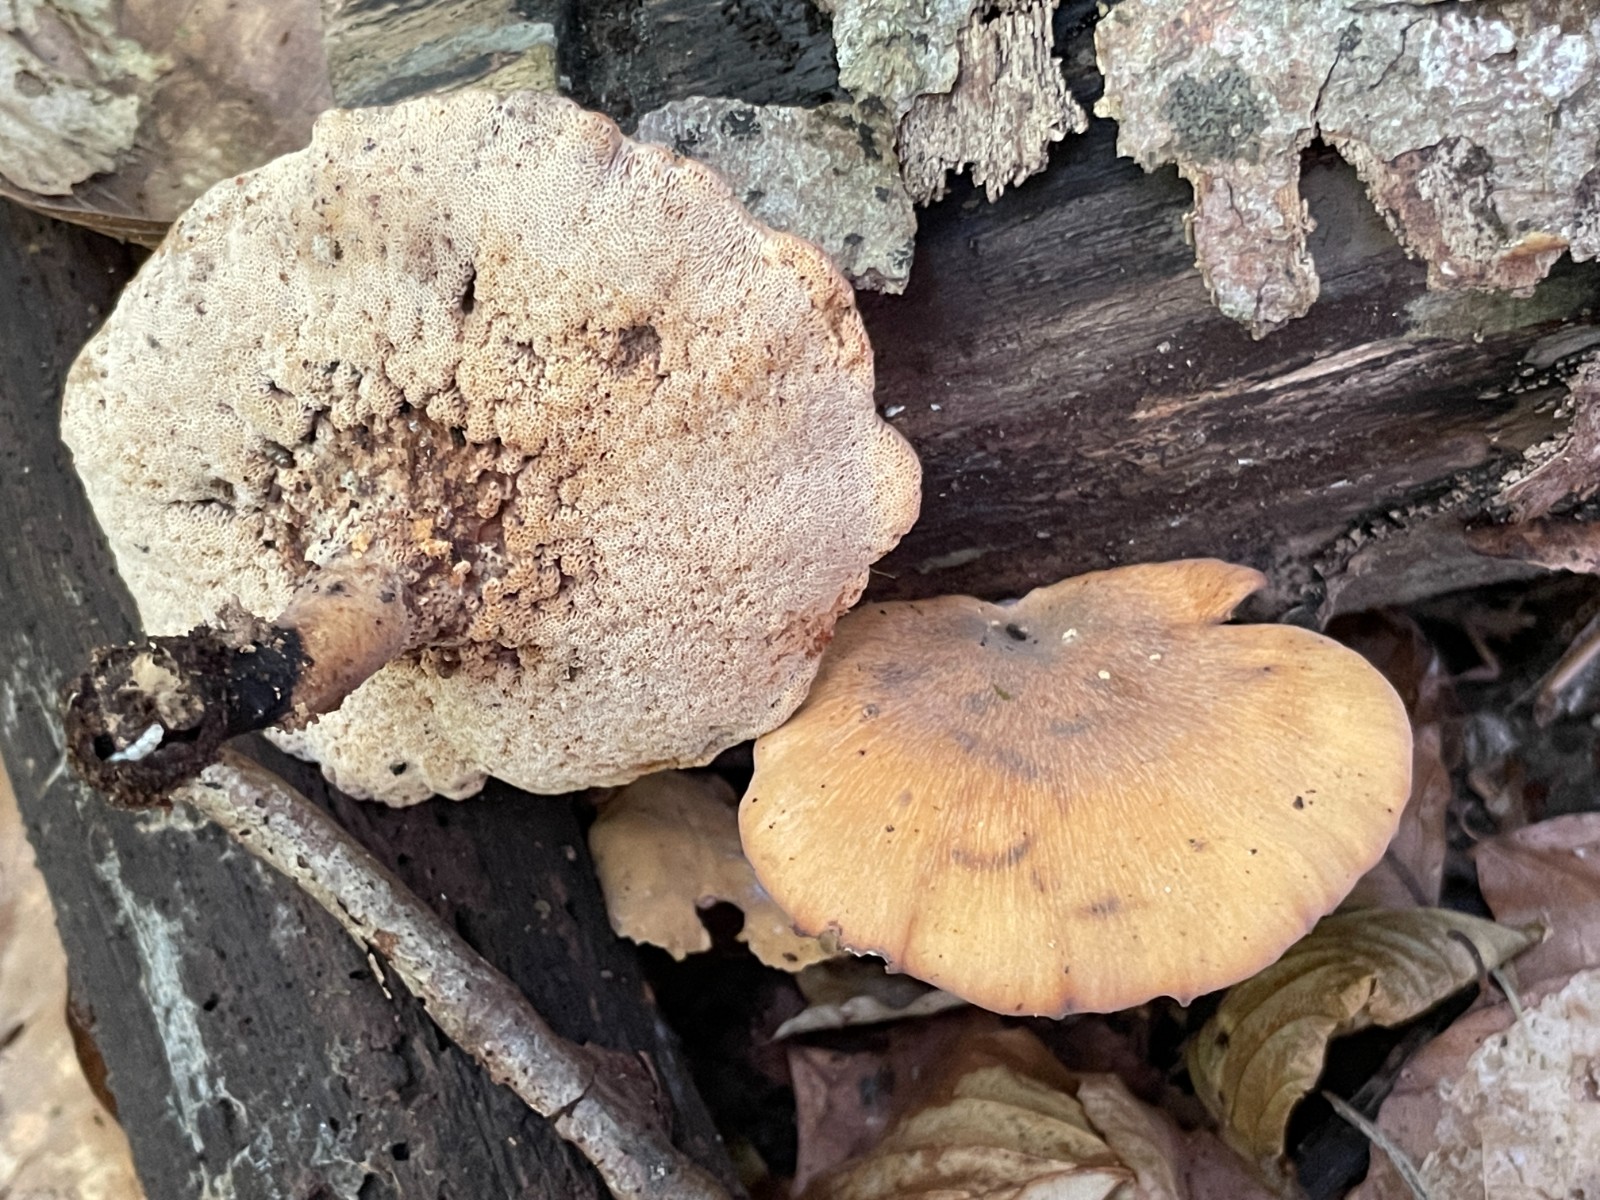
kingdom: Fungi
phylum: Basidiomycota
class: Agaricomycetes
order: Polyporales
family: Polyporaceae
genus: Cerioporus
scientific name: Cerioporus varius
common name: foranderlig stilkporesvamp
